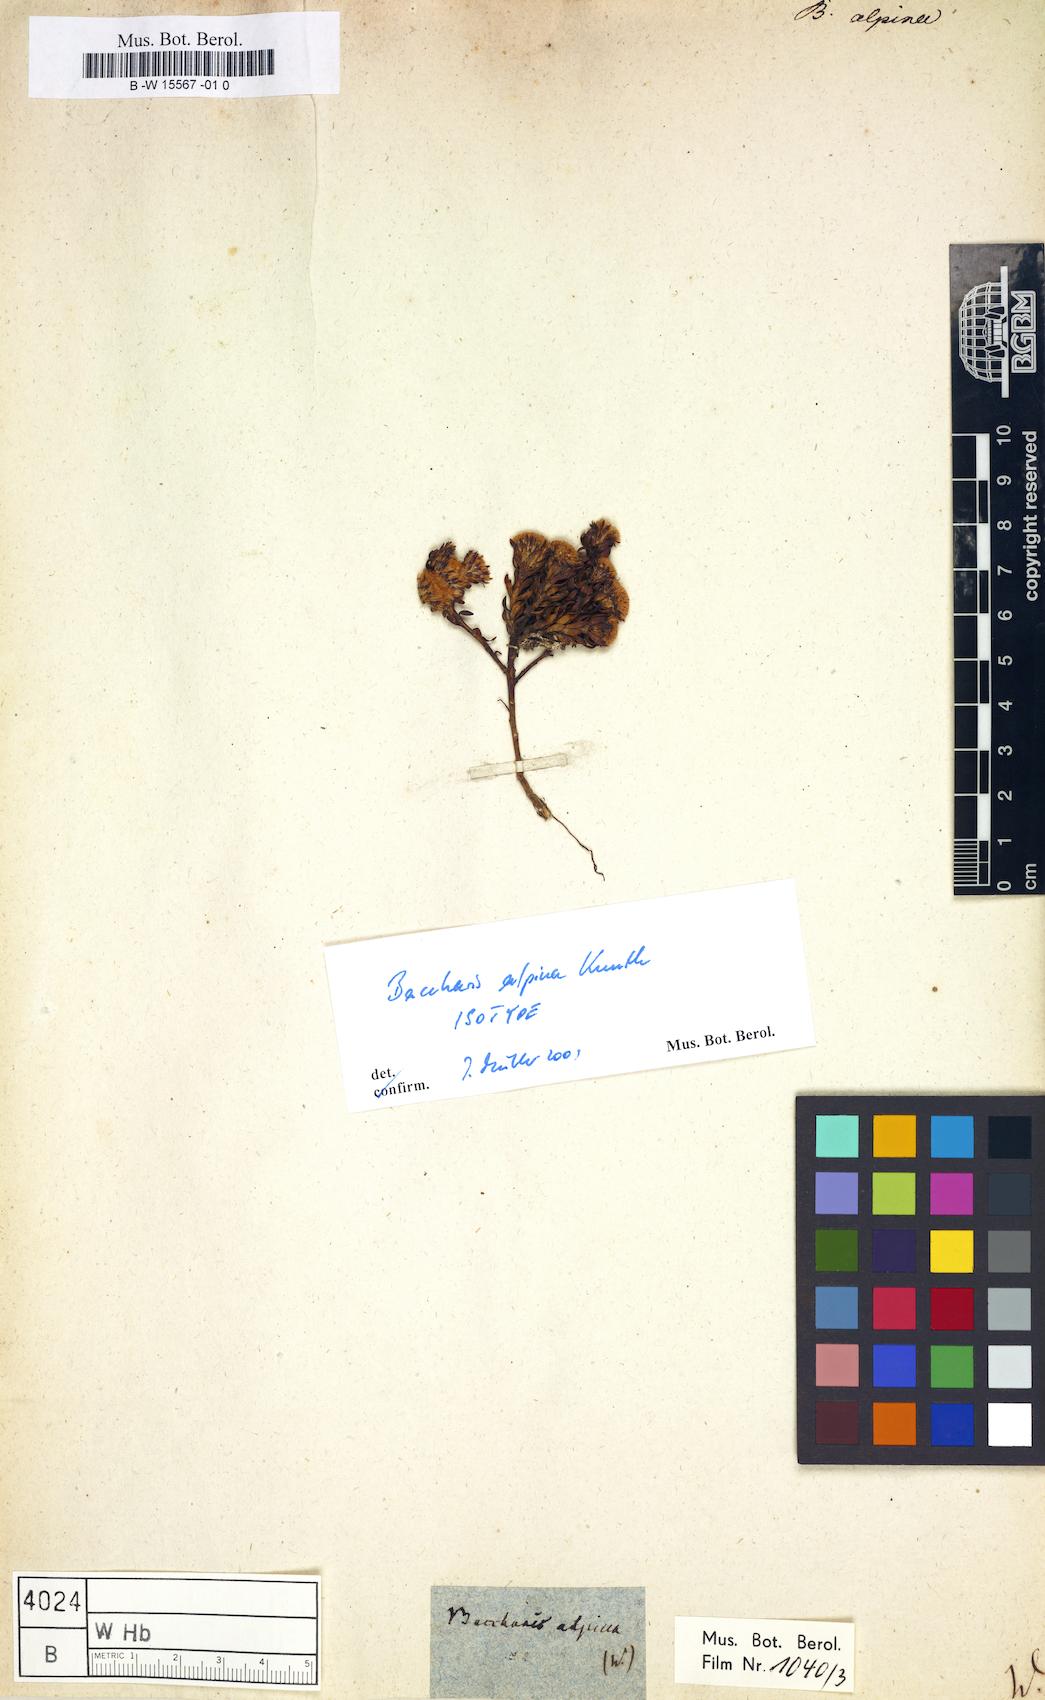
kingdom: Plantae
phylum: Tracheophyta
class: Magnoliopsida
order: Asterales
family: Asteraceae
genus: Baccharis
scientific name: Baccharis alpina
